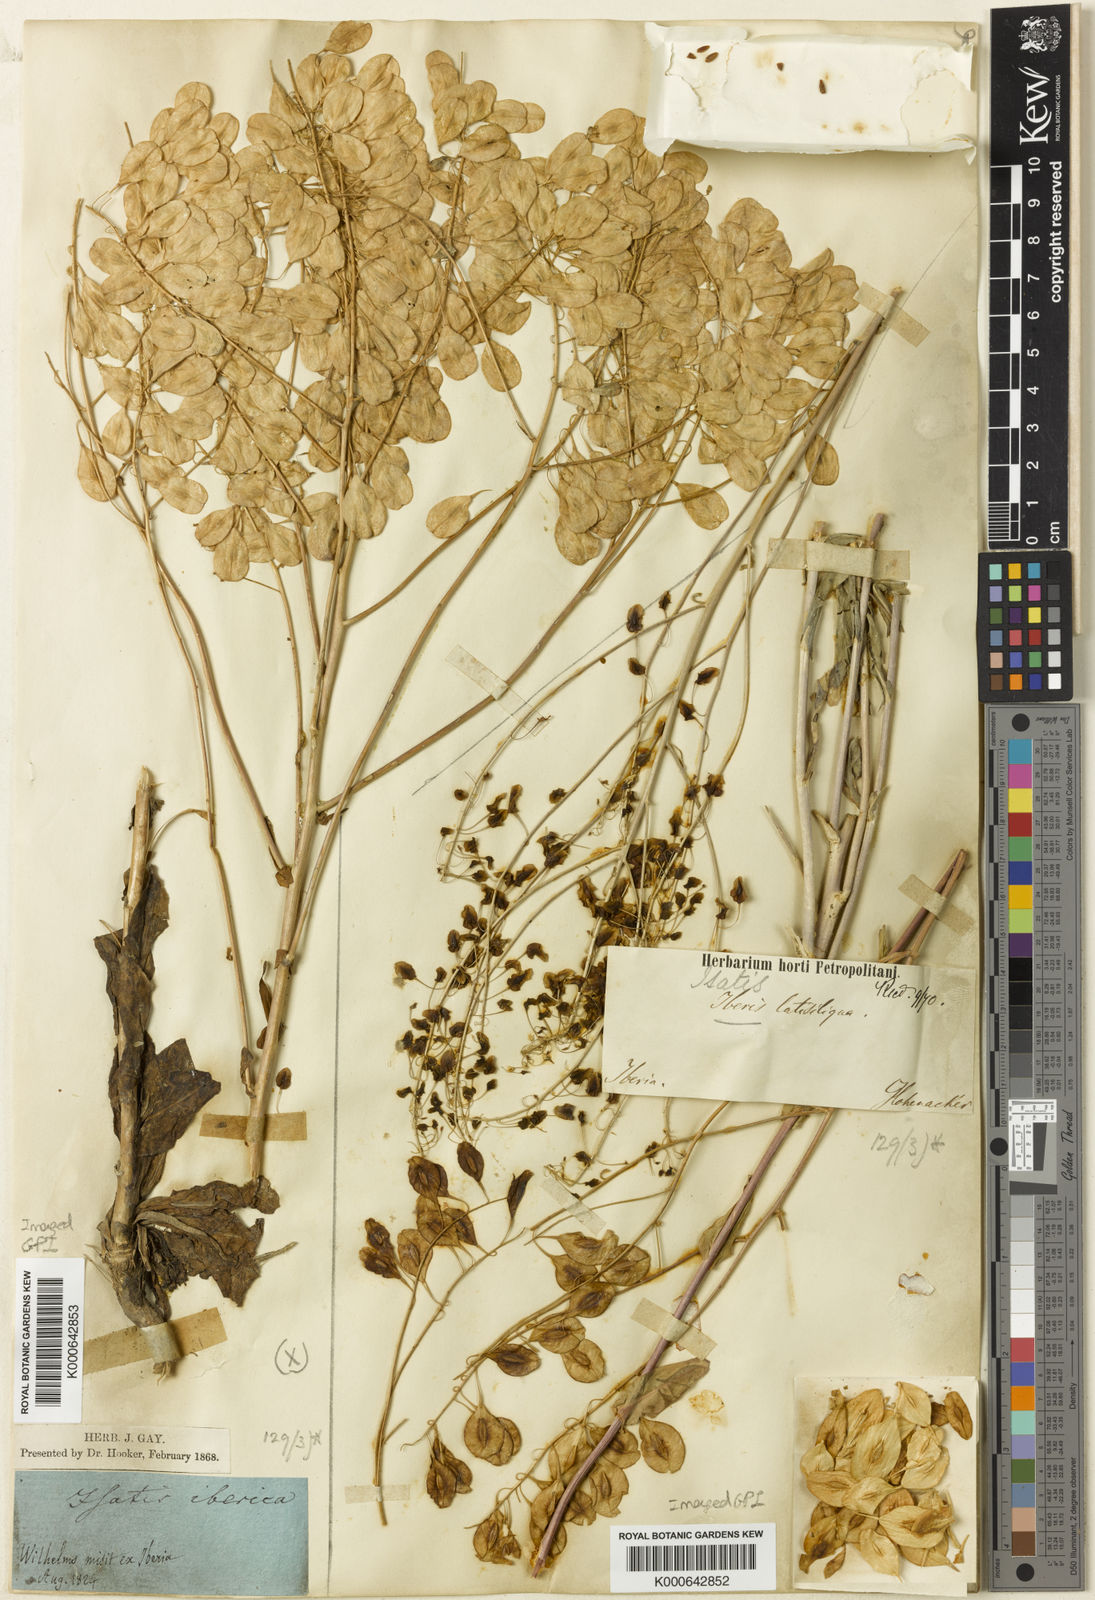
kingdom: Plantae
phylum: Tracheophyta
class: Magnoliopsida
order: Brassicales
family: Brassicaceae
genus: Isatis
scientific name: Isatis latisiliqua
